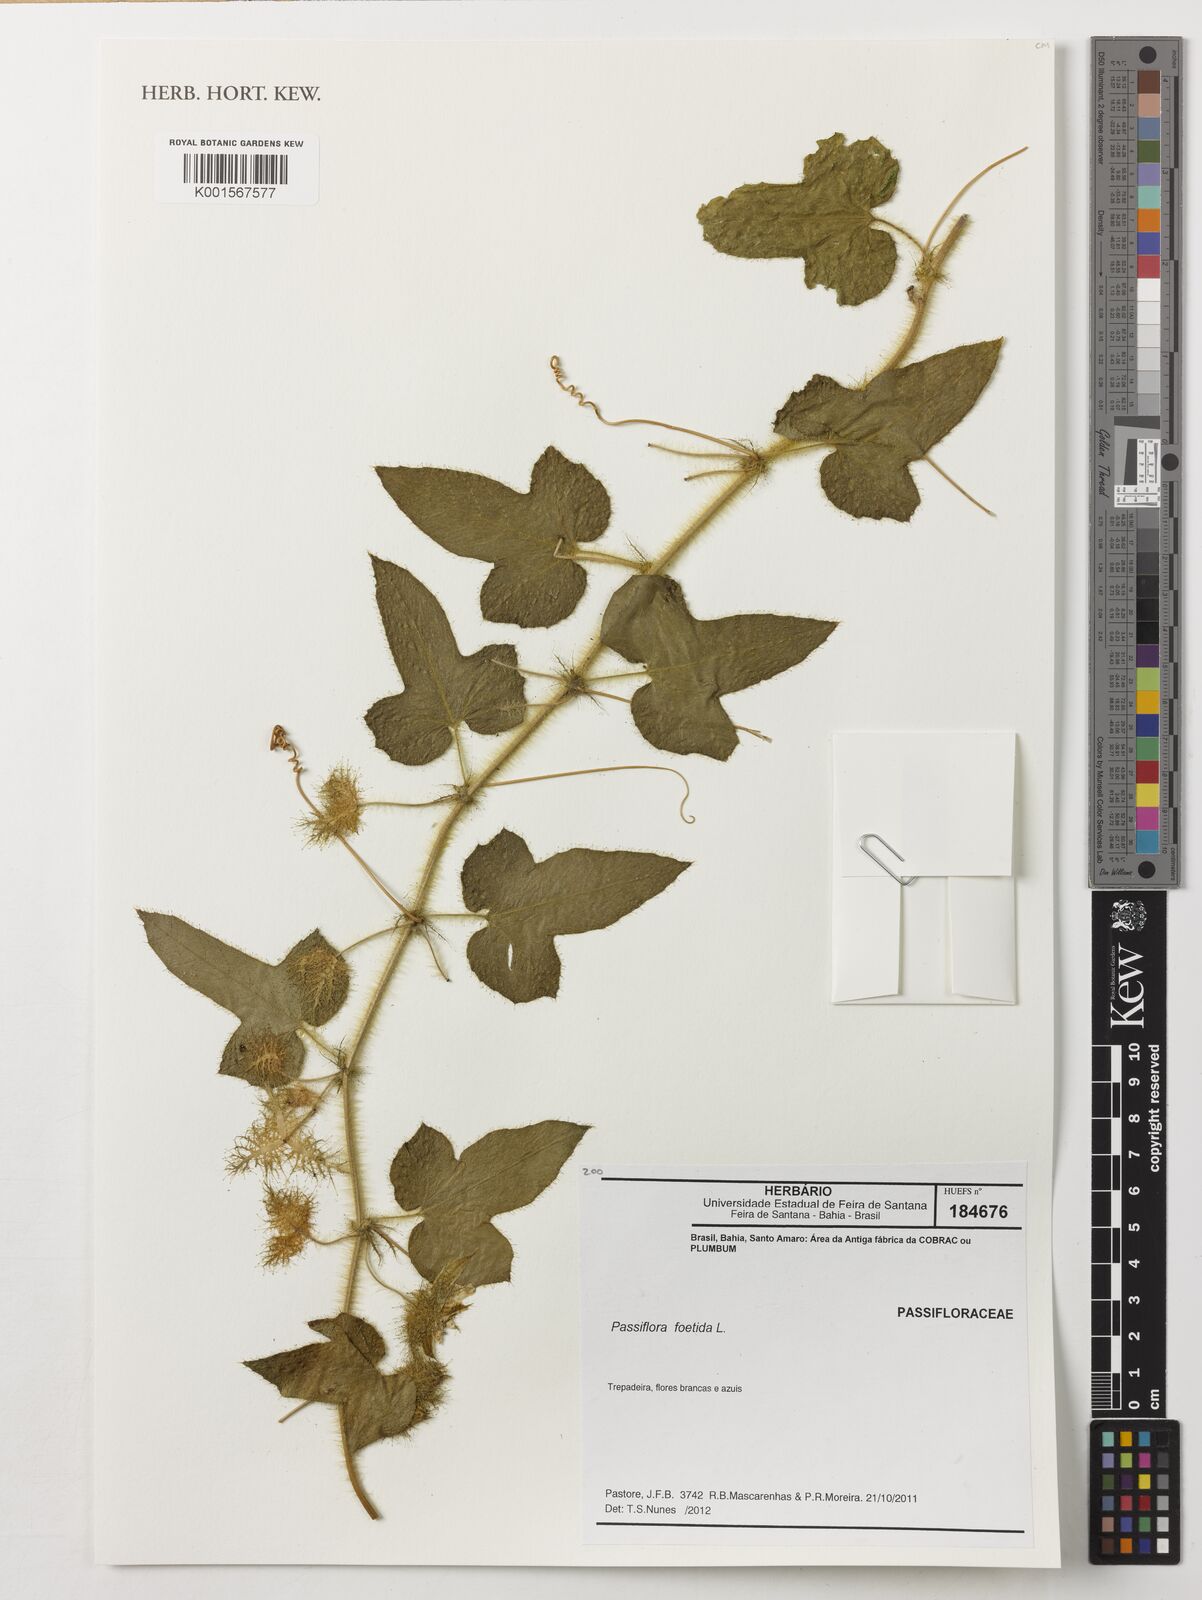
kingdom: Plantae
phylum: Tracheophyta
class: Magnoliopsida
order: Malpighiales
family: Passifloraceae
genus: Passiflora
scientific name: Passiflora foetida
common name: Fetid passionflower
